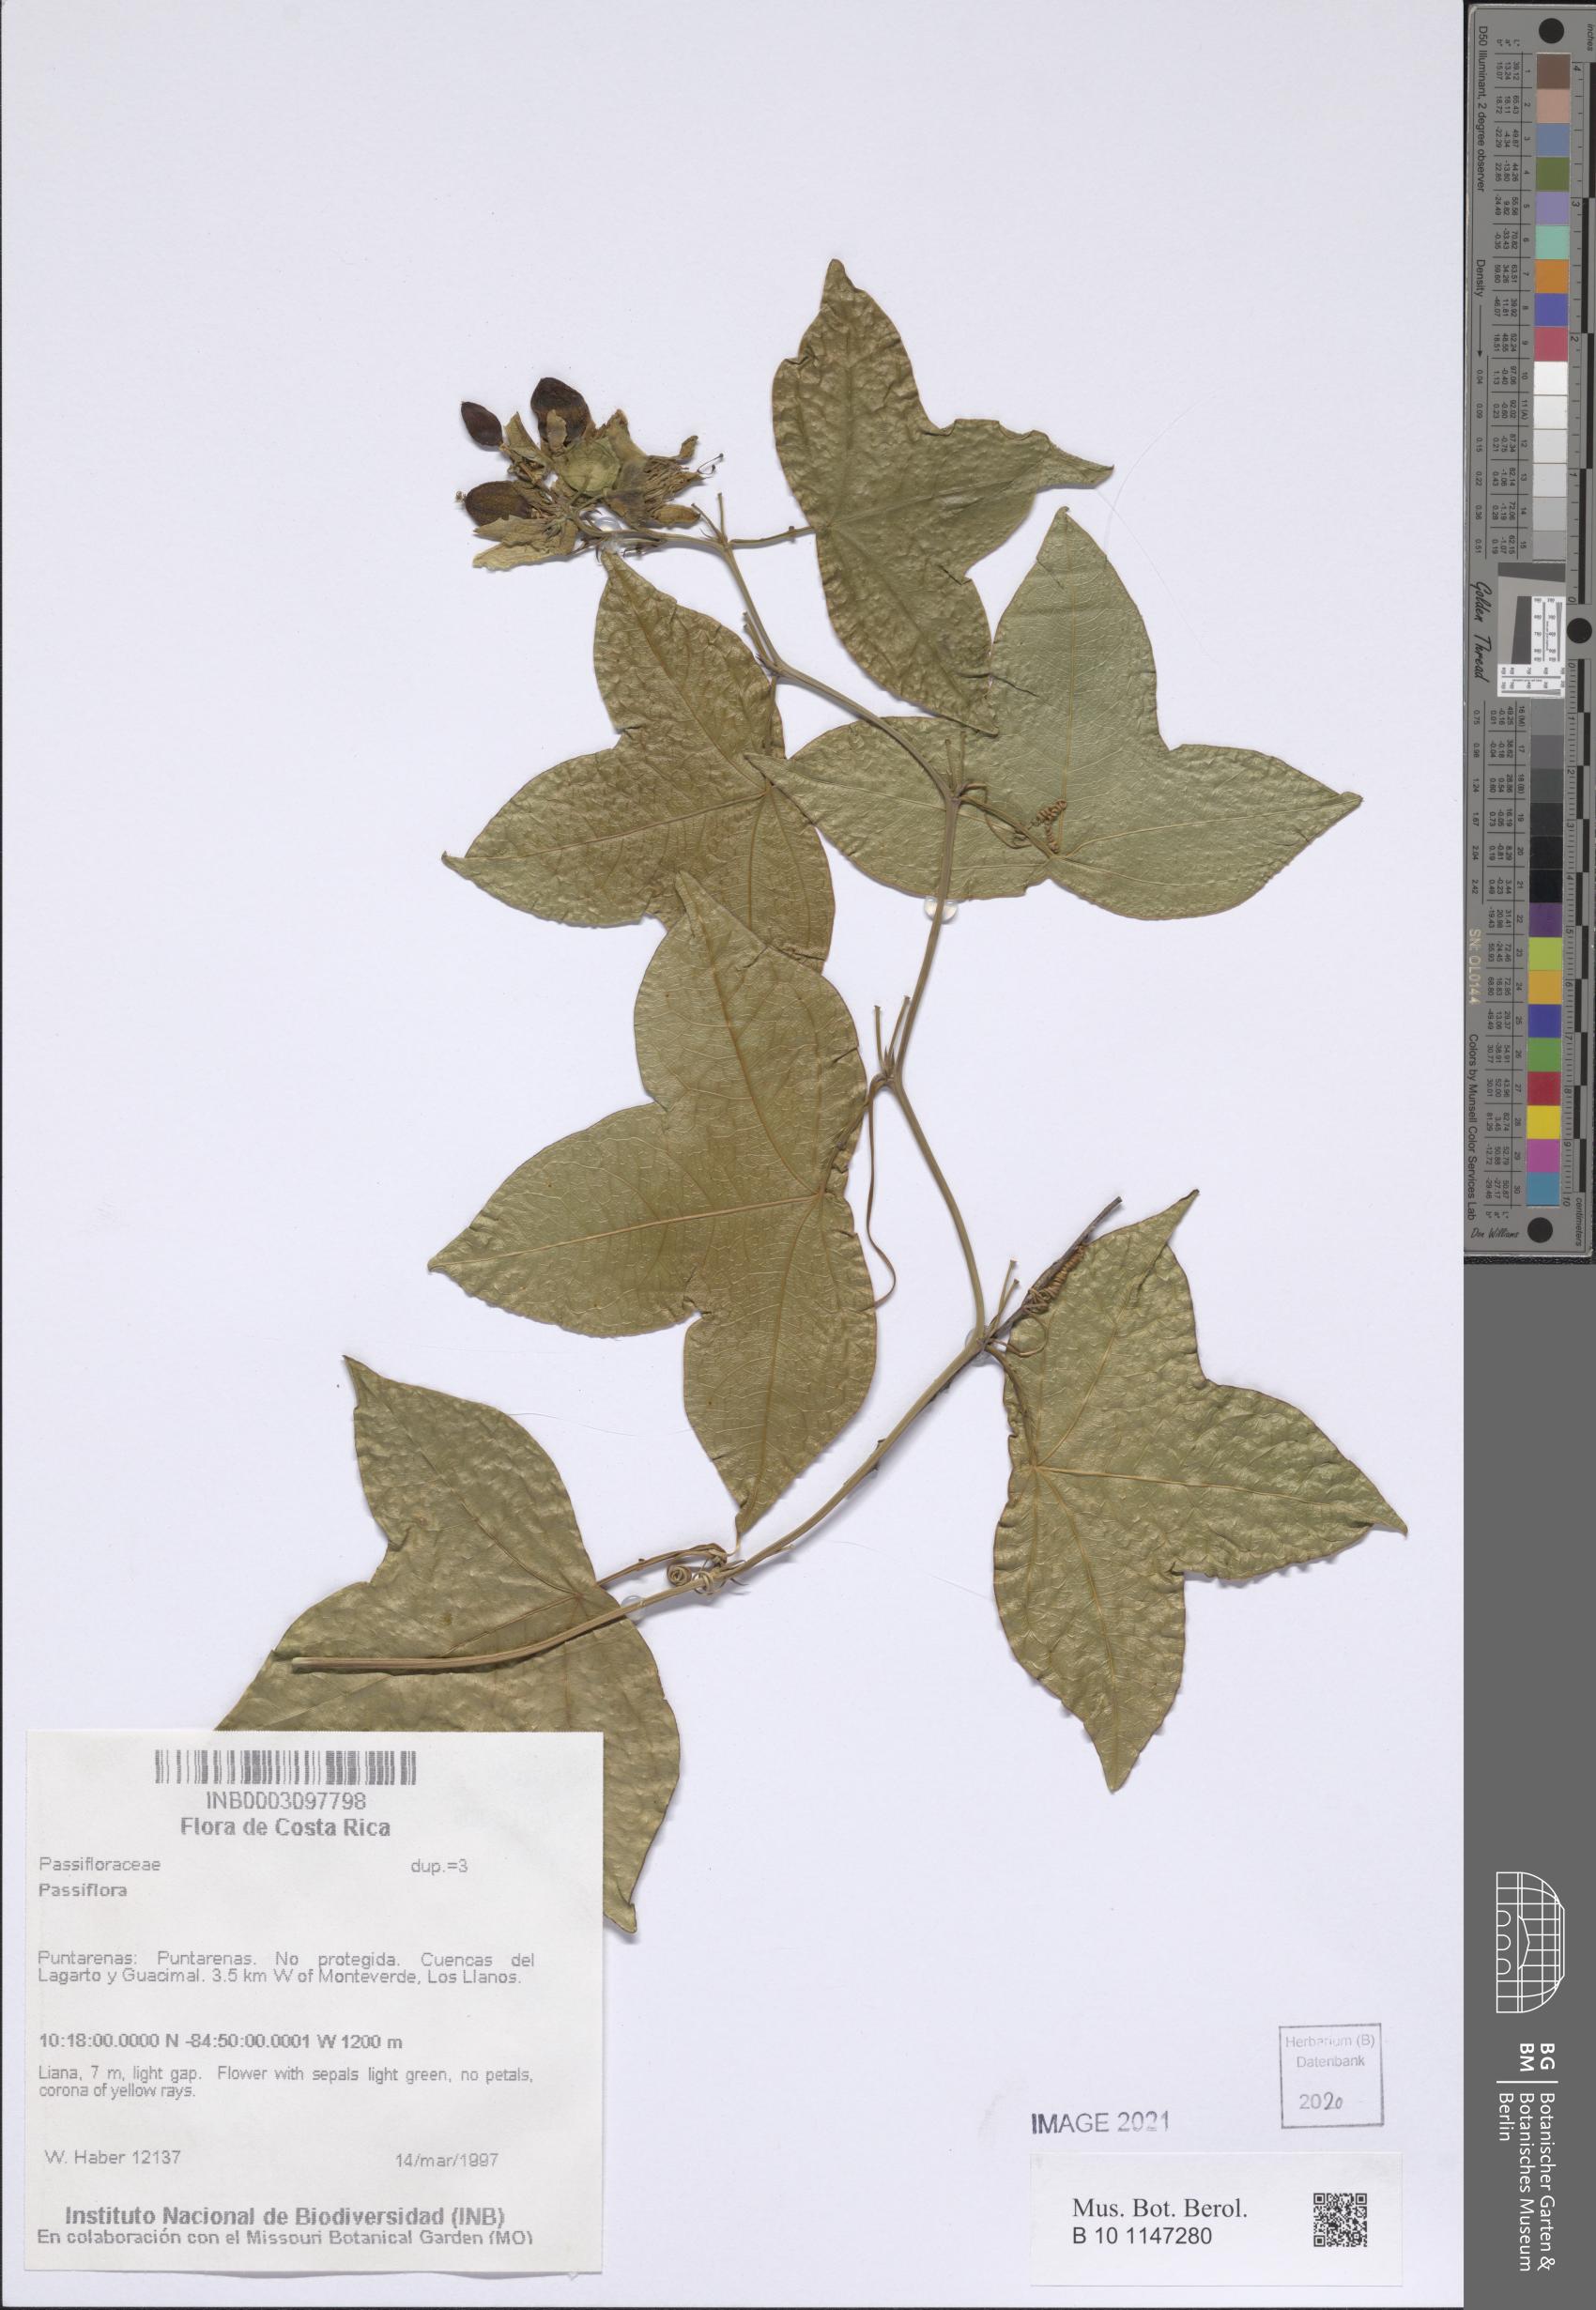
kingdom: Plantae
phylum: Tracheophyta
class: Magnoliopsida
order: Malpighiales
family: Passifloraceae
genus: Passiflora
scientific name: Passiflora
